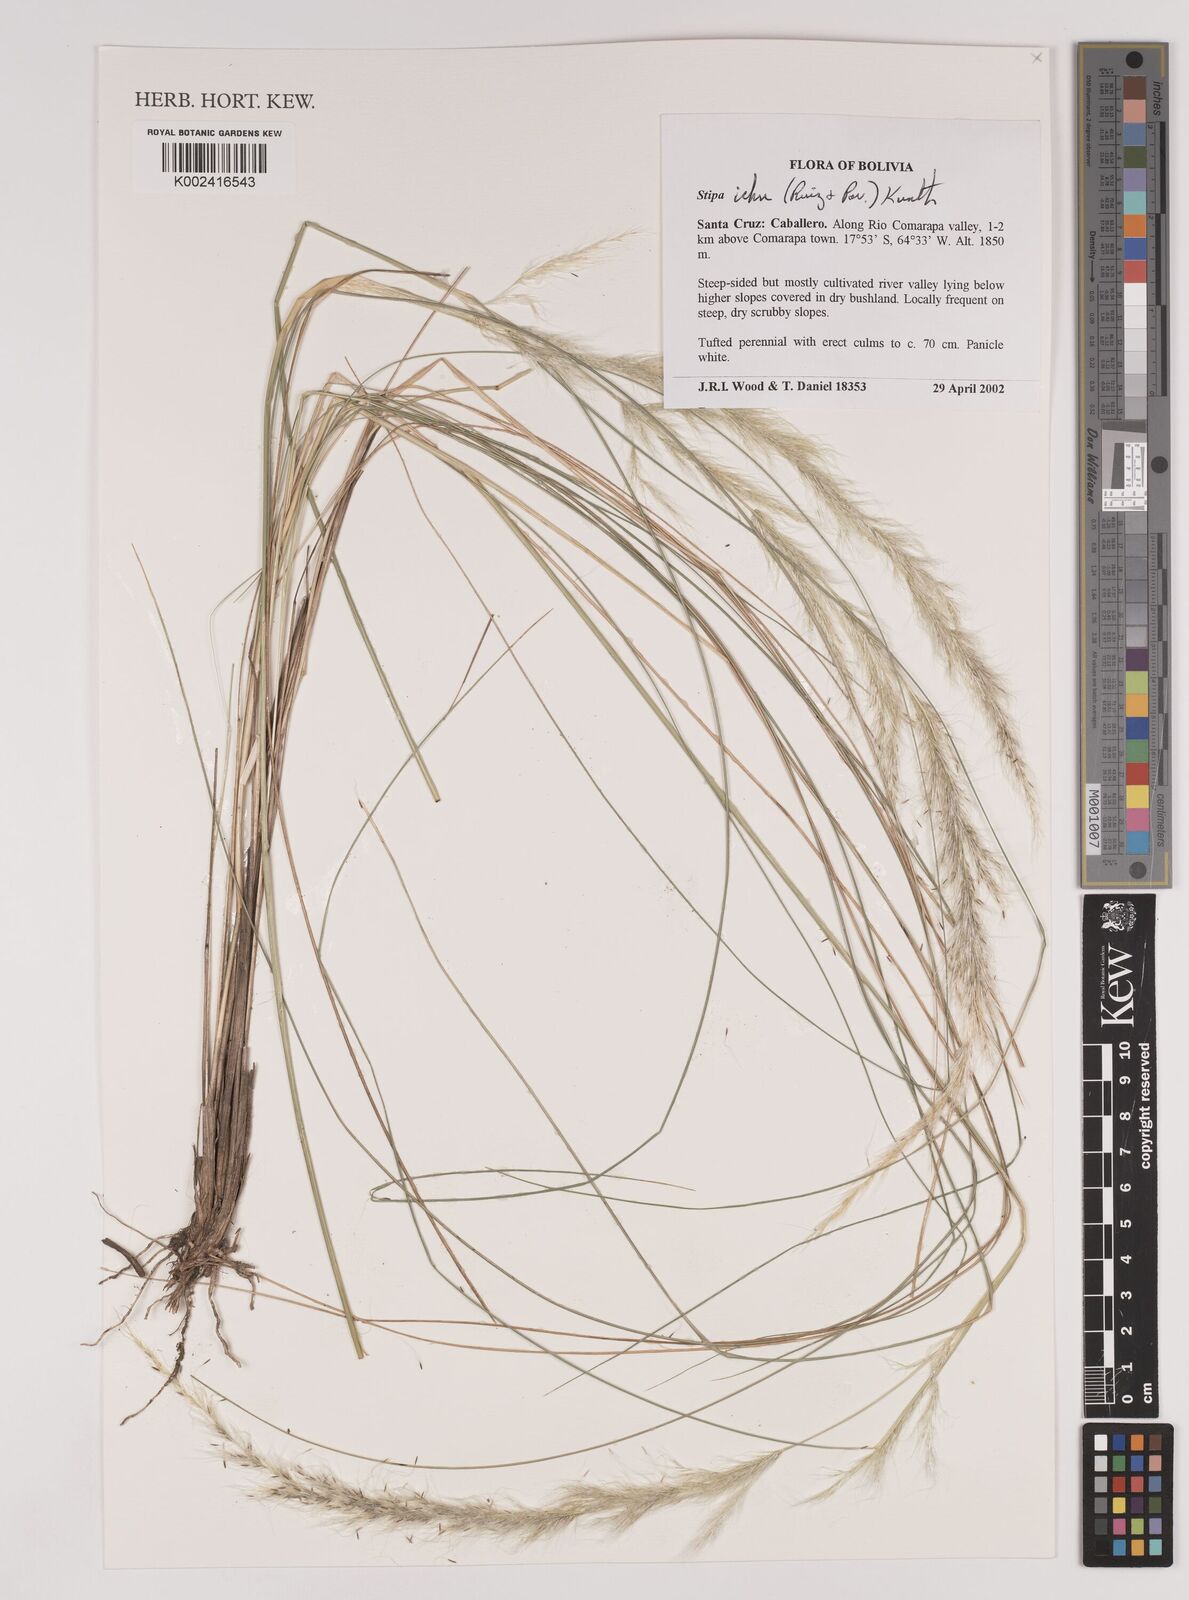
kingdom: Plantae
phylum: Tracheophyta
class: Liliopsida
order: Poales
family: Poaceae
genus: Jarava
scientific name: Jarava ichu
